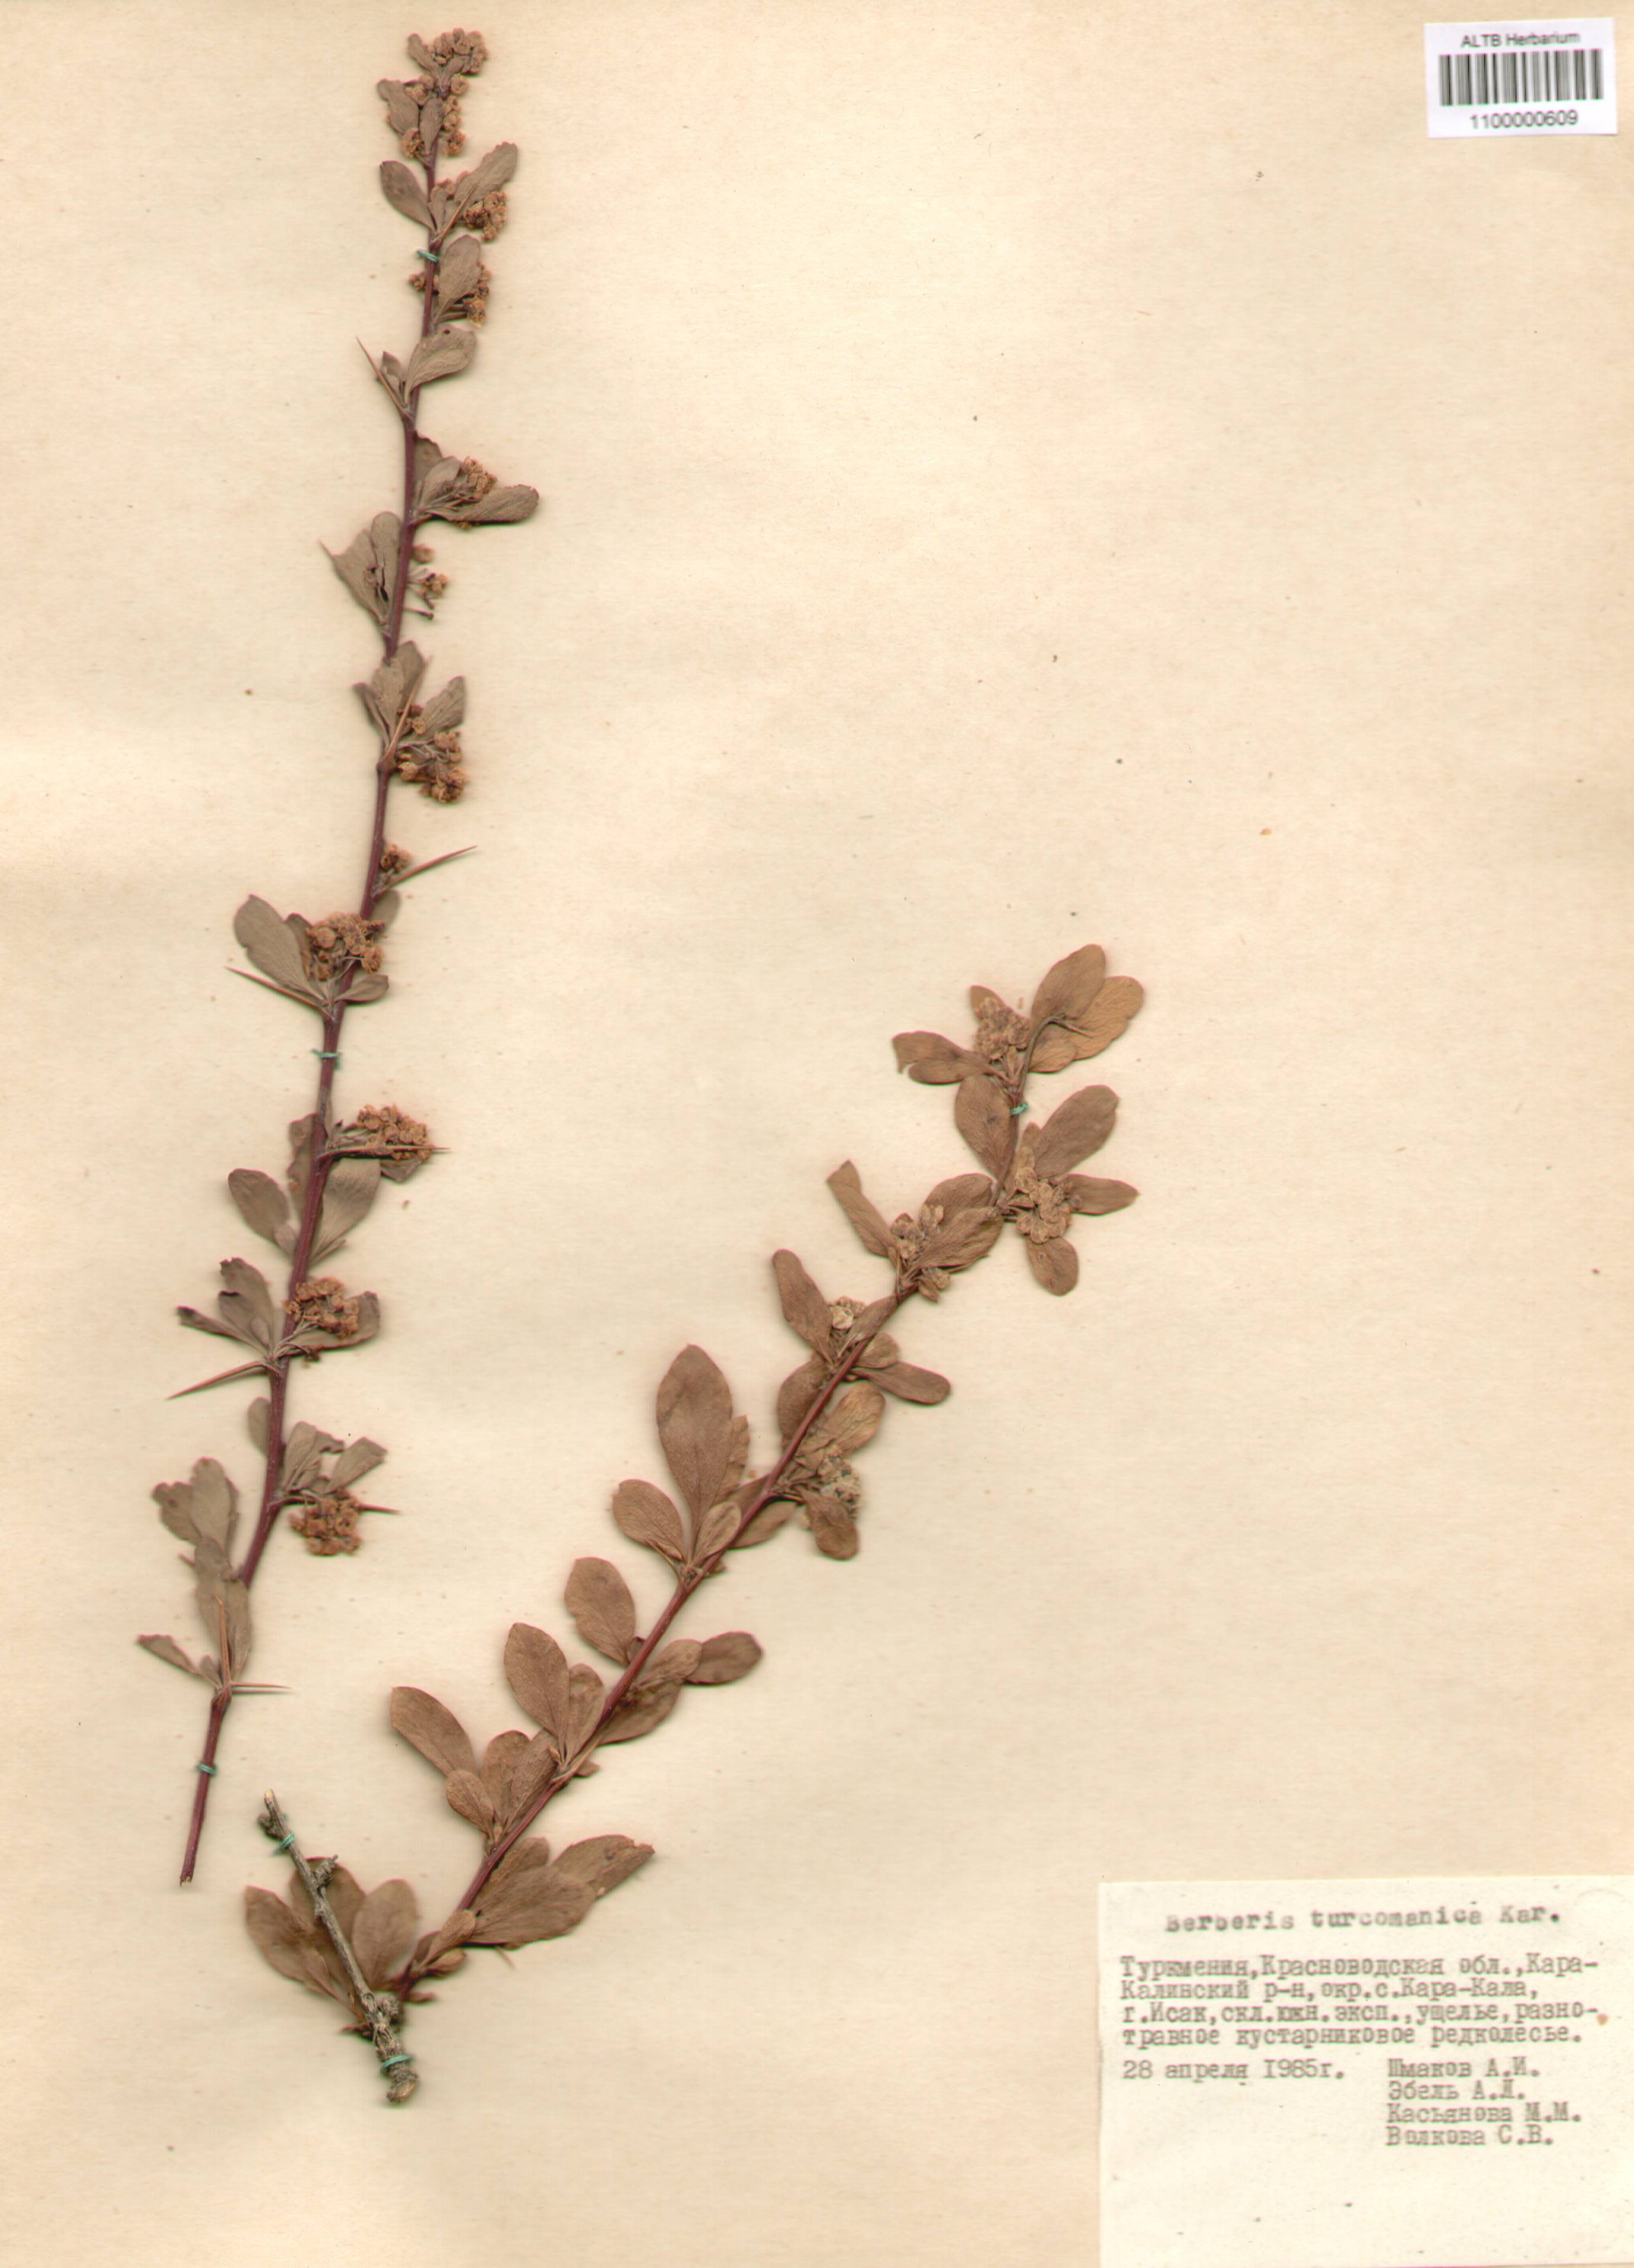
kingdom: Plantae
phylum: Tracheophyta
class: Magnoliopsida
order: Ranunculales
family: Berberidaceae
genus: Berberis
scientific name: Berberis turcomanica
